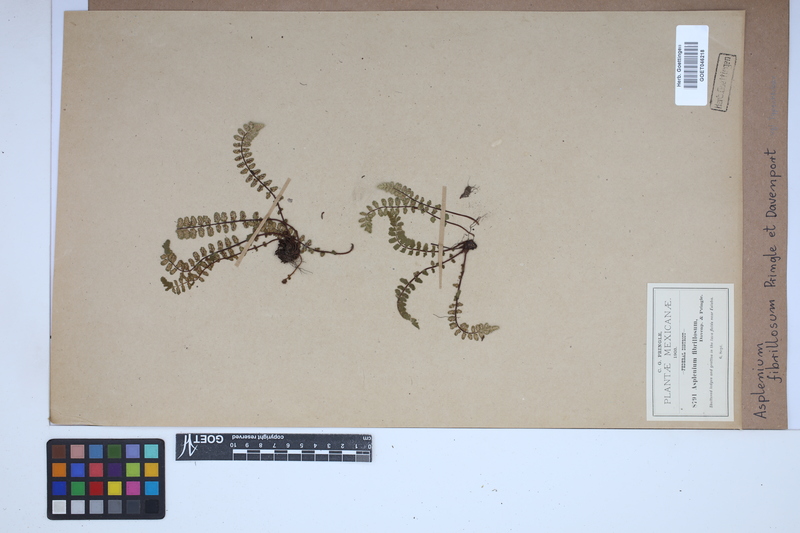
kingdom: Plantae
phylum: Tracheophyta
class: Polypodiopsida
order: Polypodiales
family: Aspleniaceae
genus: Asplenium
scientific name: Asplenium fibrillosum
